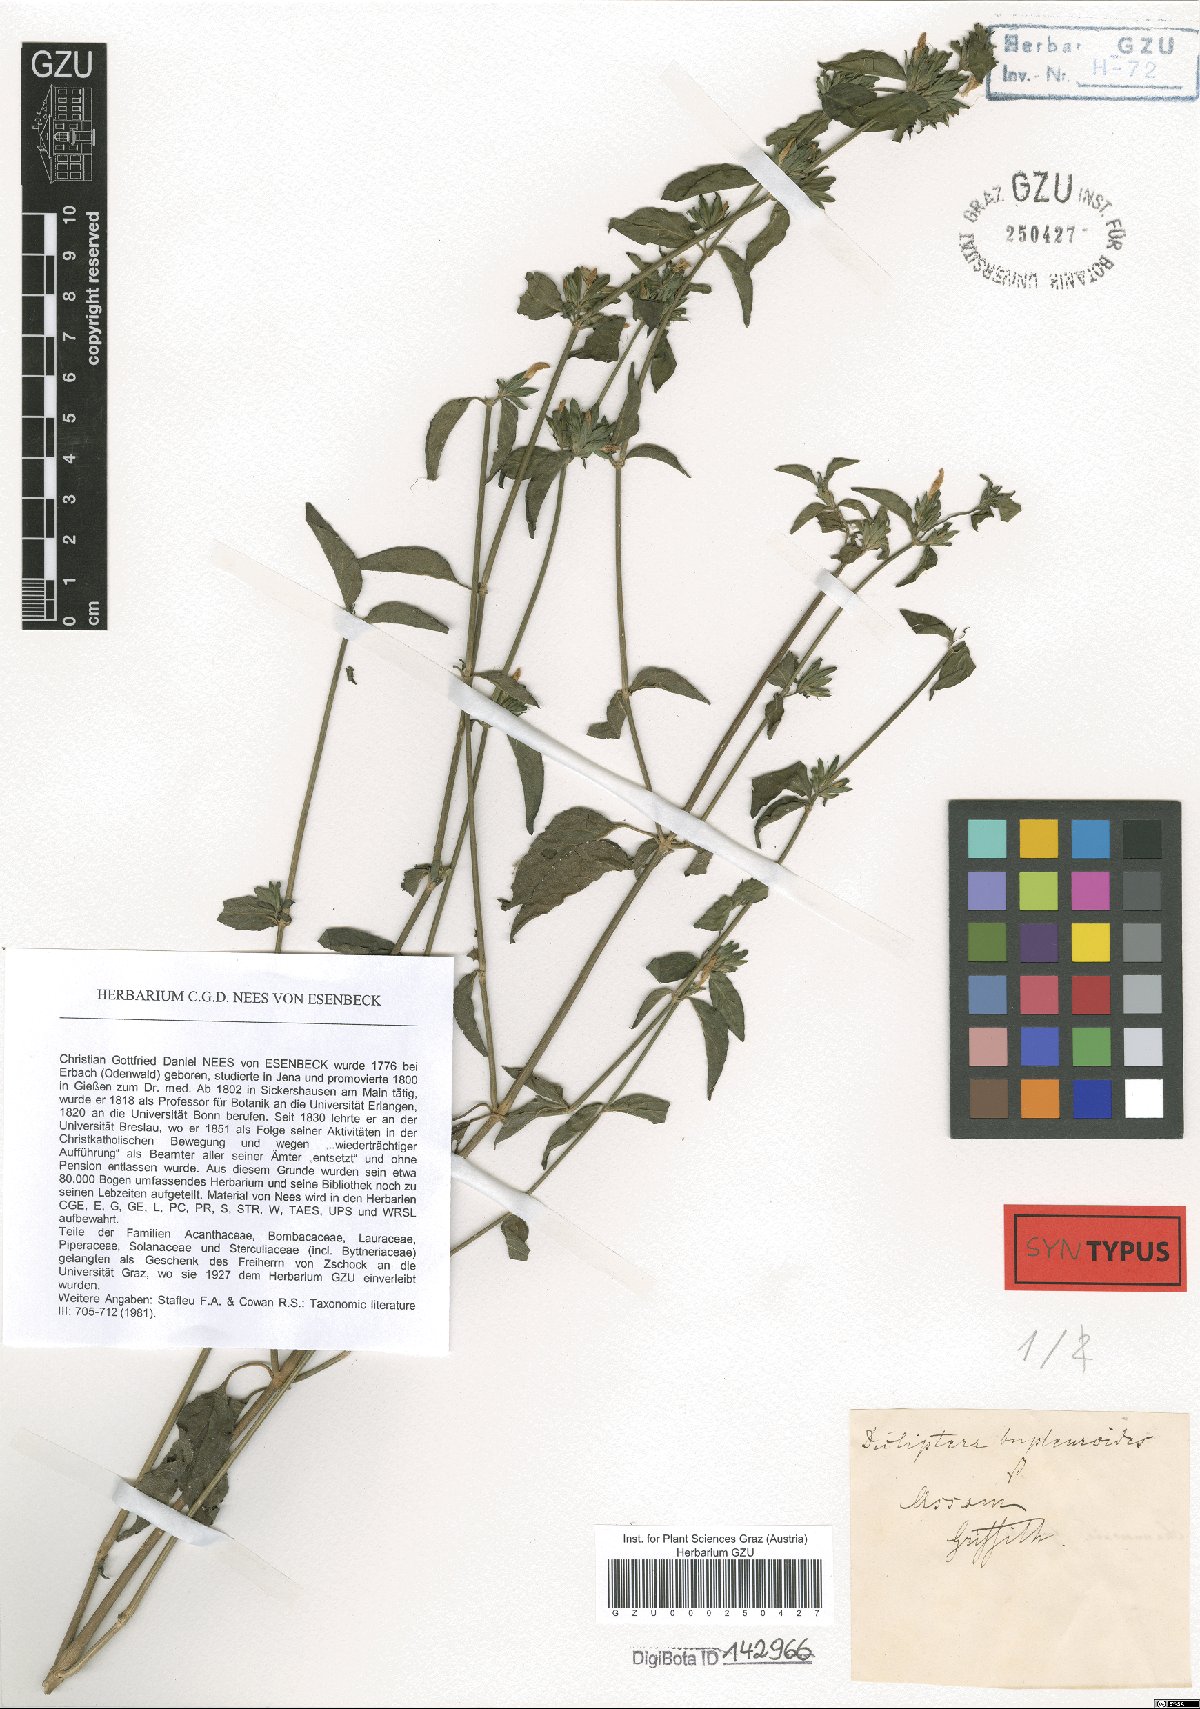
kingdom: Plantae
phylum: Tracheophyta
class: Magnoliopsida
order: Lamiales
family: Acanthaceae
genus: Dicliptera
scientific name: Dicliptera bupleuroides
